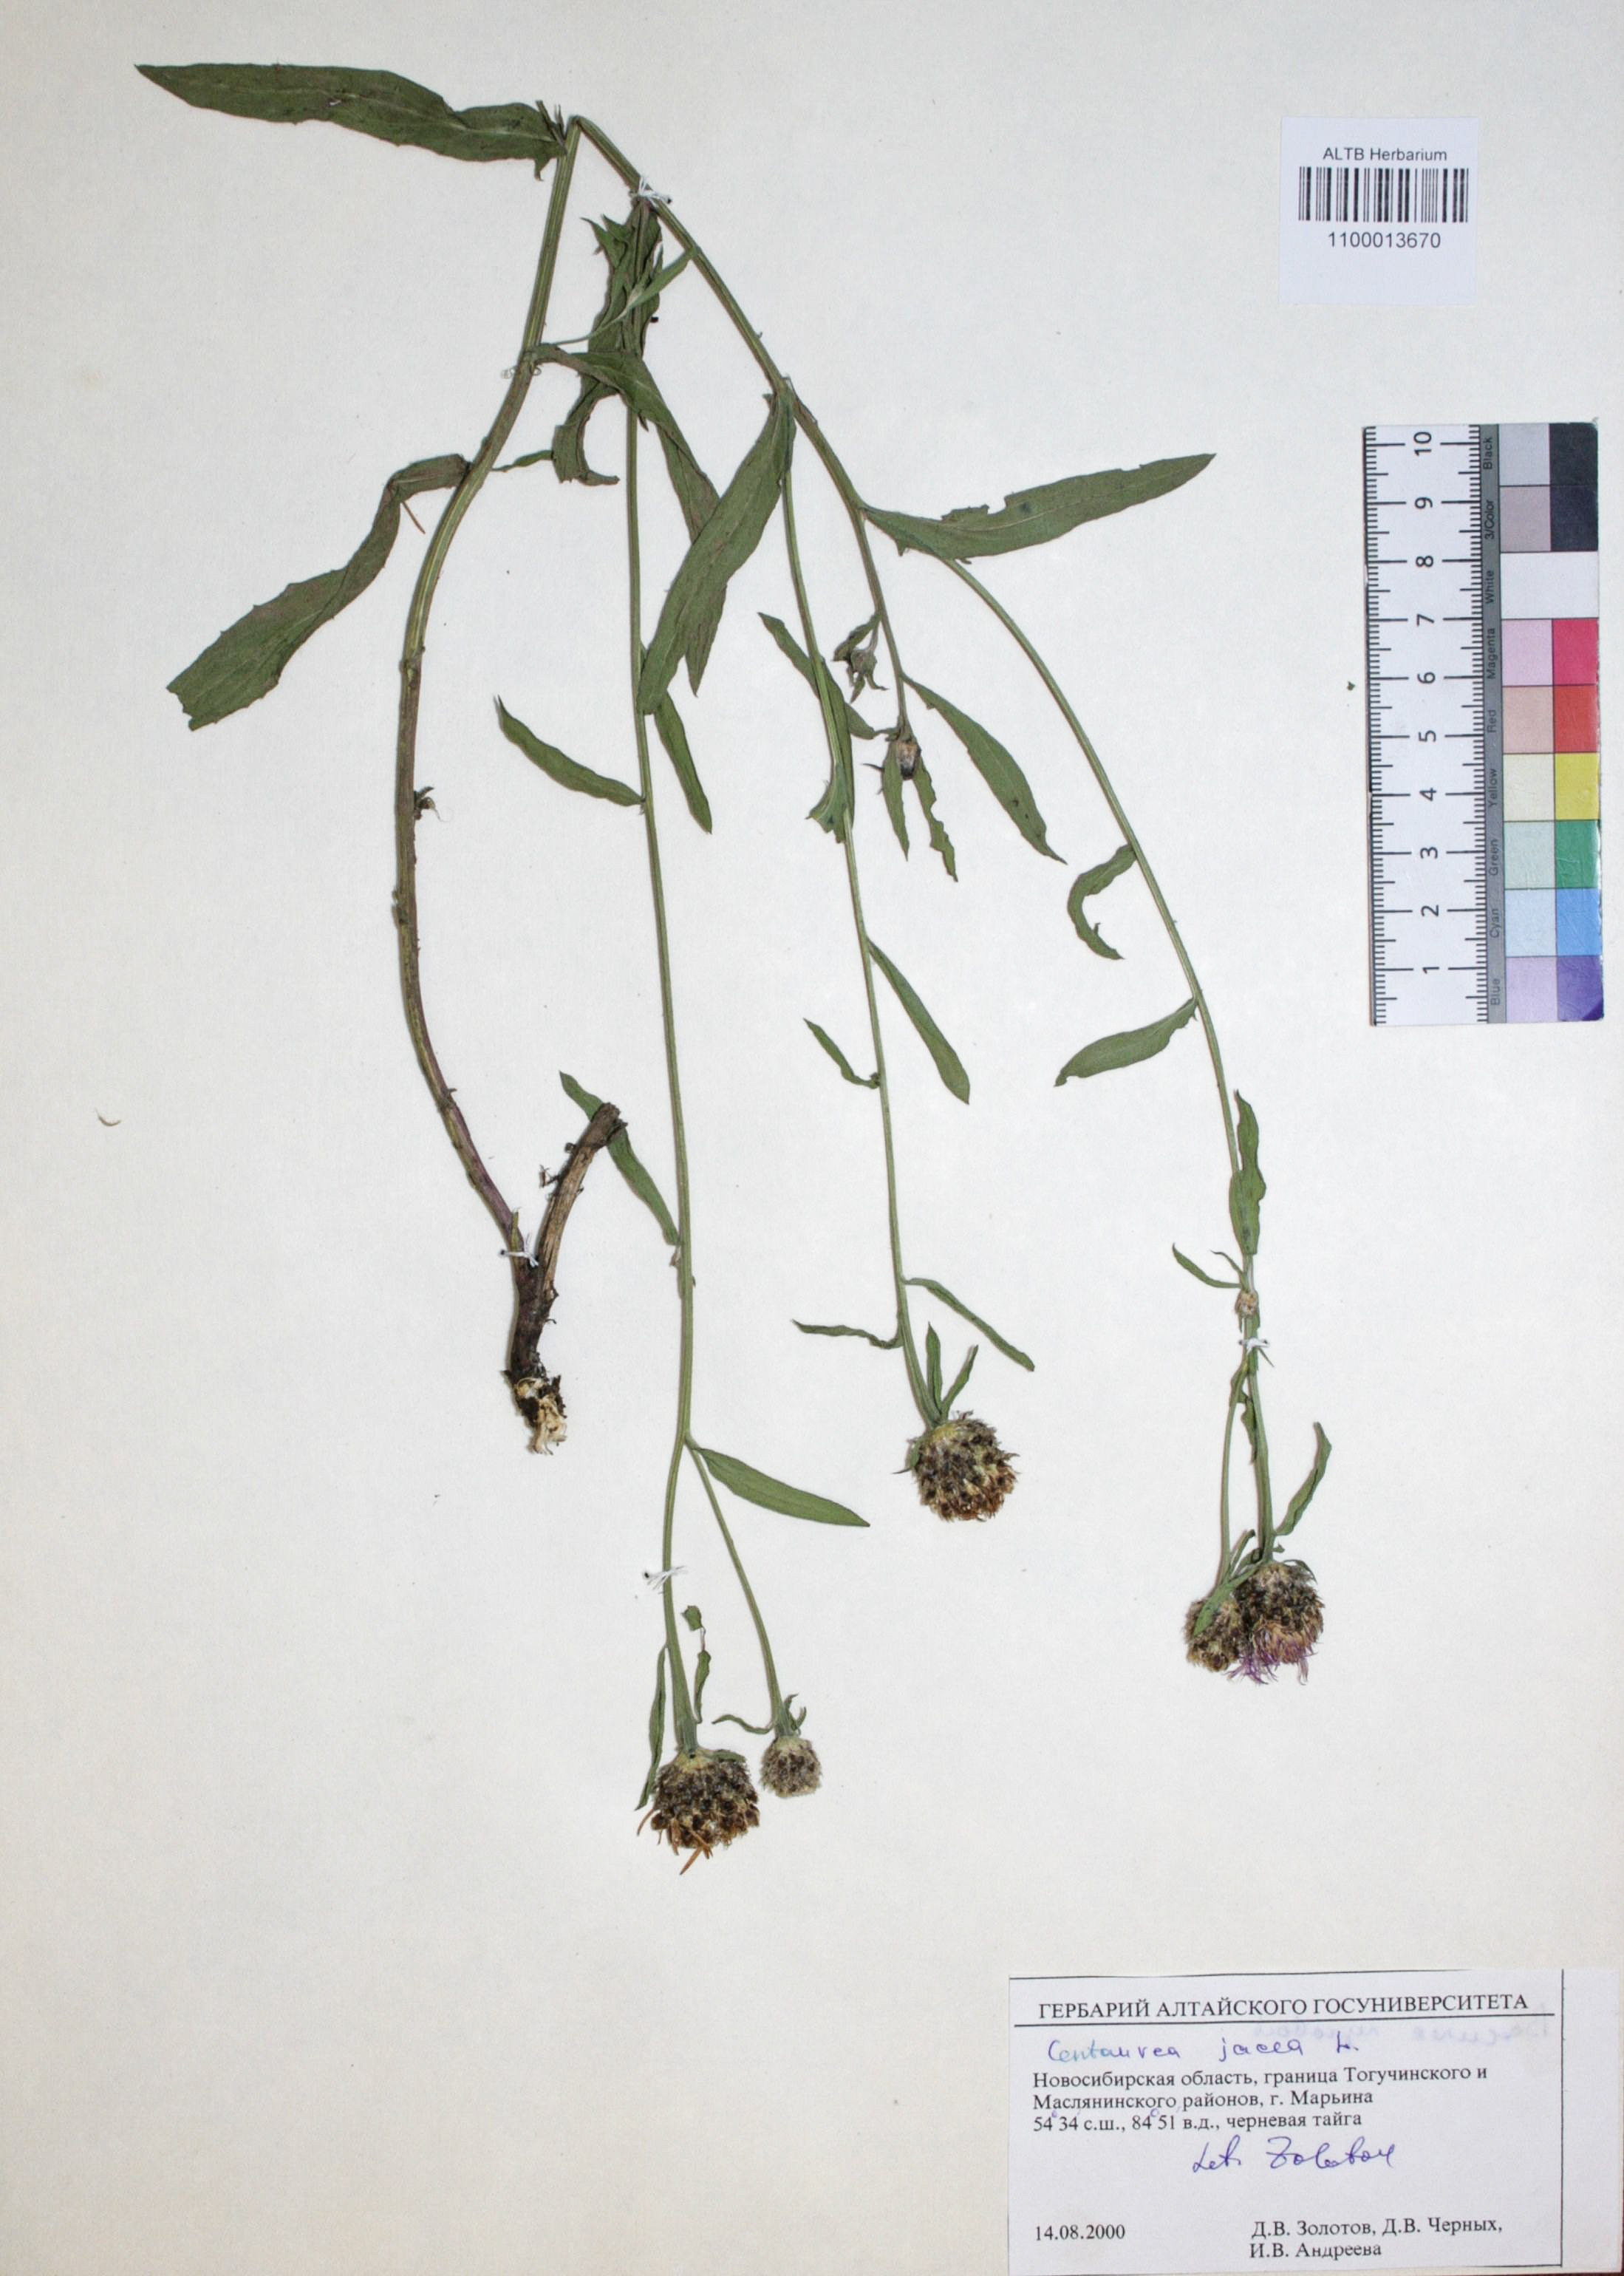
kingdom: Plantae
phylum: Tracheophyta
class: Magnoliopsida
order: Asterales
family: Asteraceae
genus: Centaurea
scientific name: Centaurea jacea
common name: Brown knapweed
